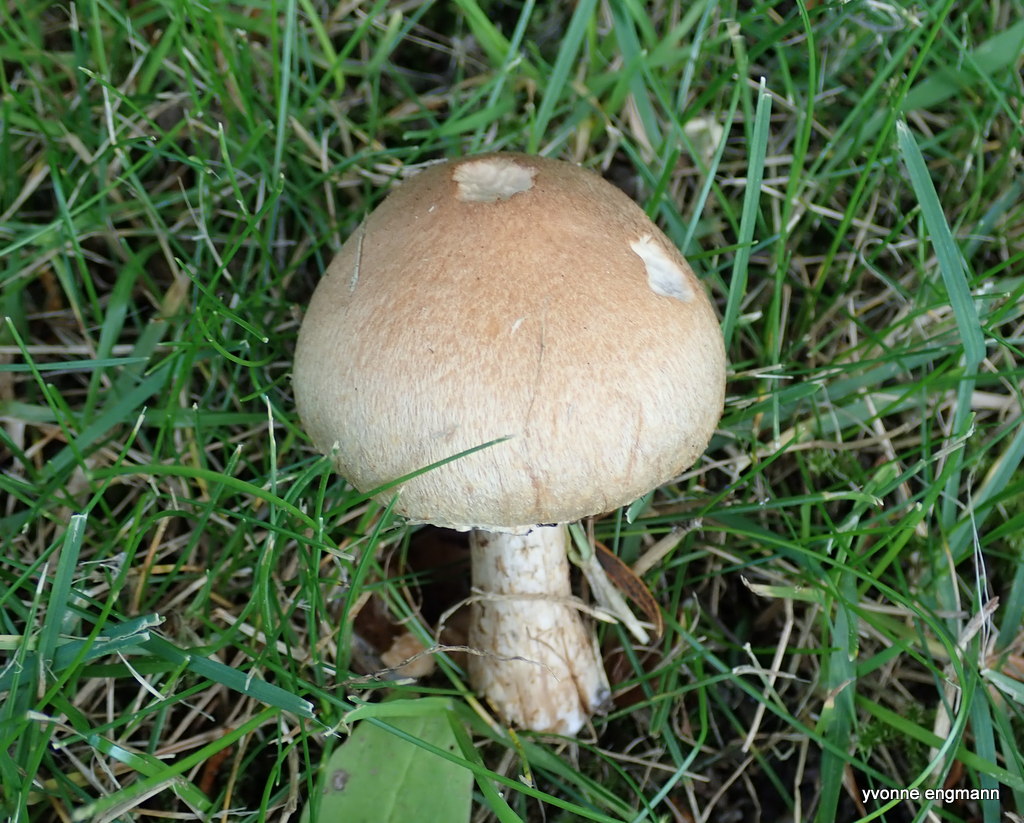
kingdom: Fungi
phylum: Basidiomycota
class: Agaricomycetes
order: Agaricales
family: Psathyrellaceae
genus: Lacrymaria
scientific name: Lacrymaria lacrymabunda
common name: grædende mørkhat
